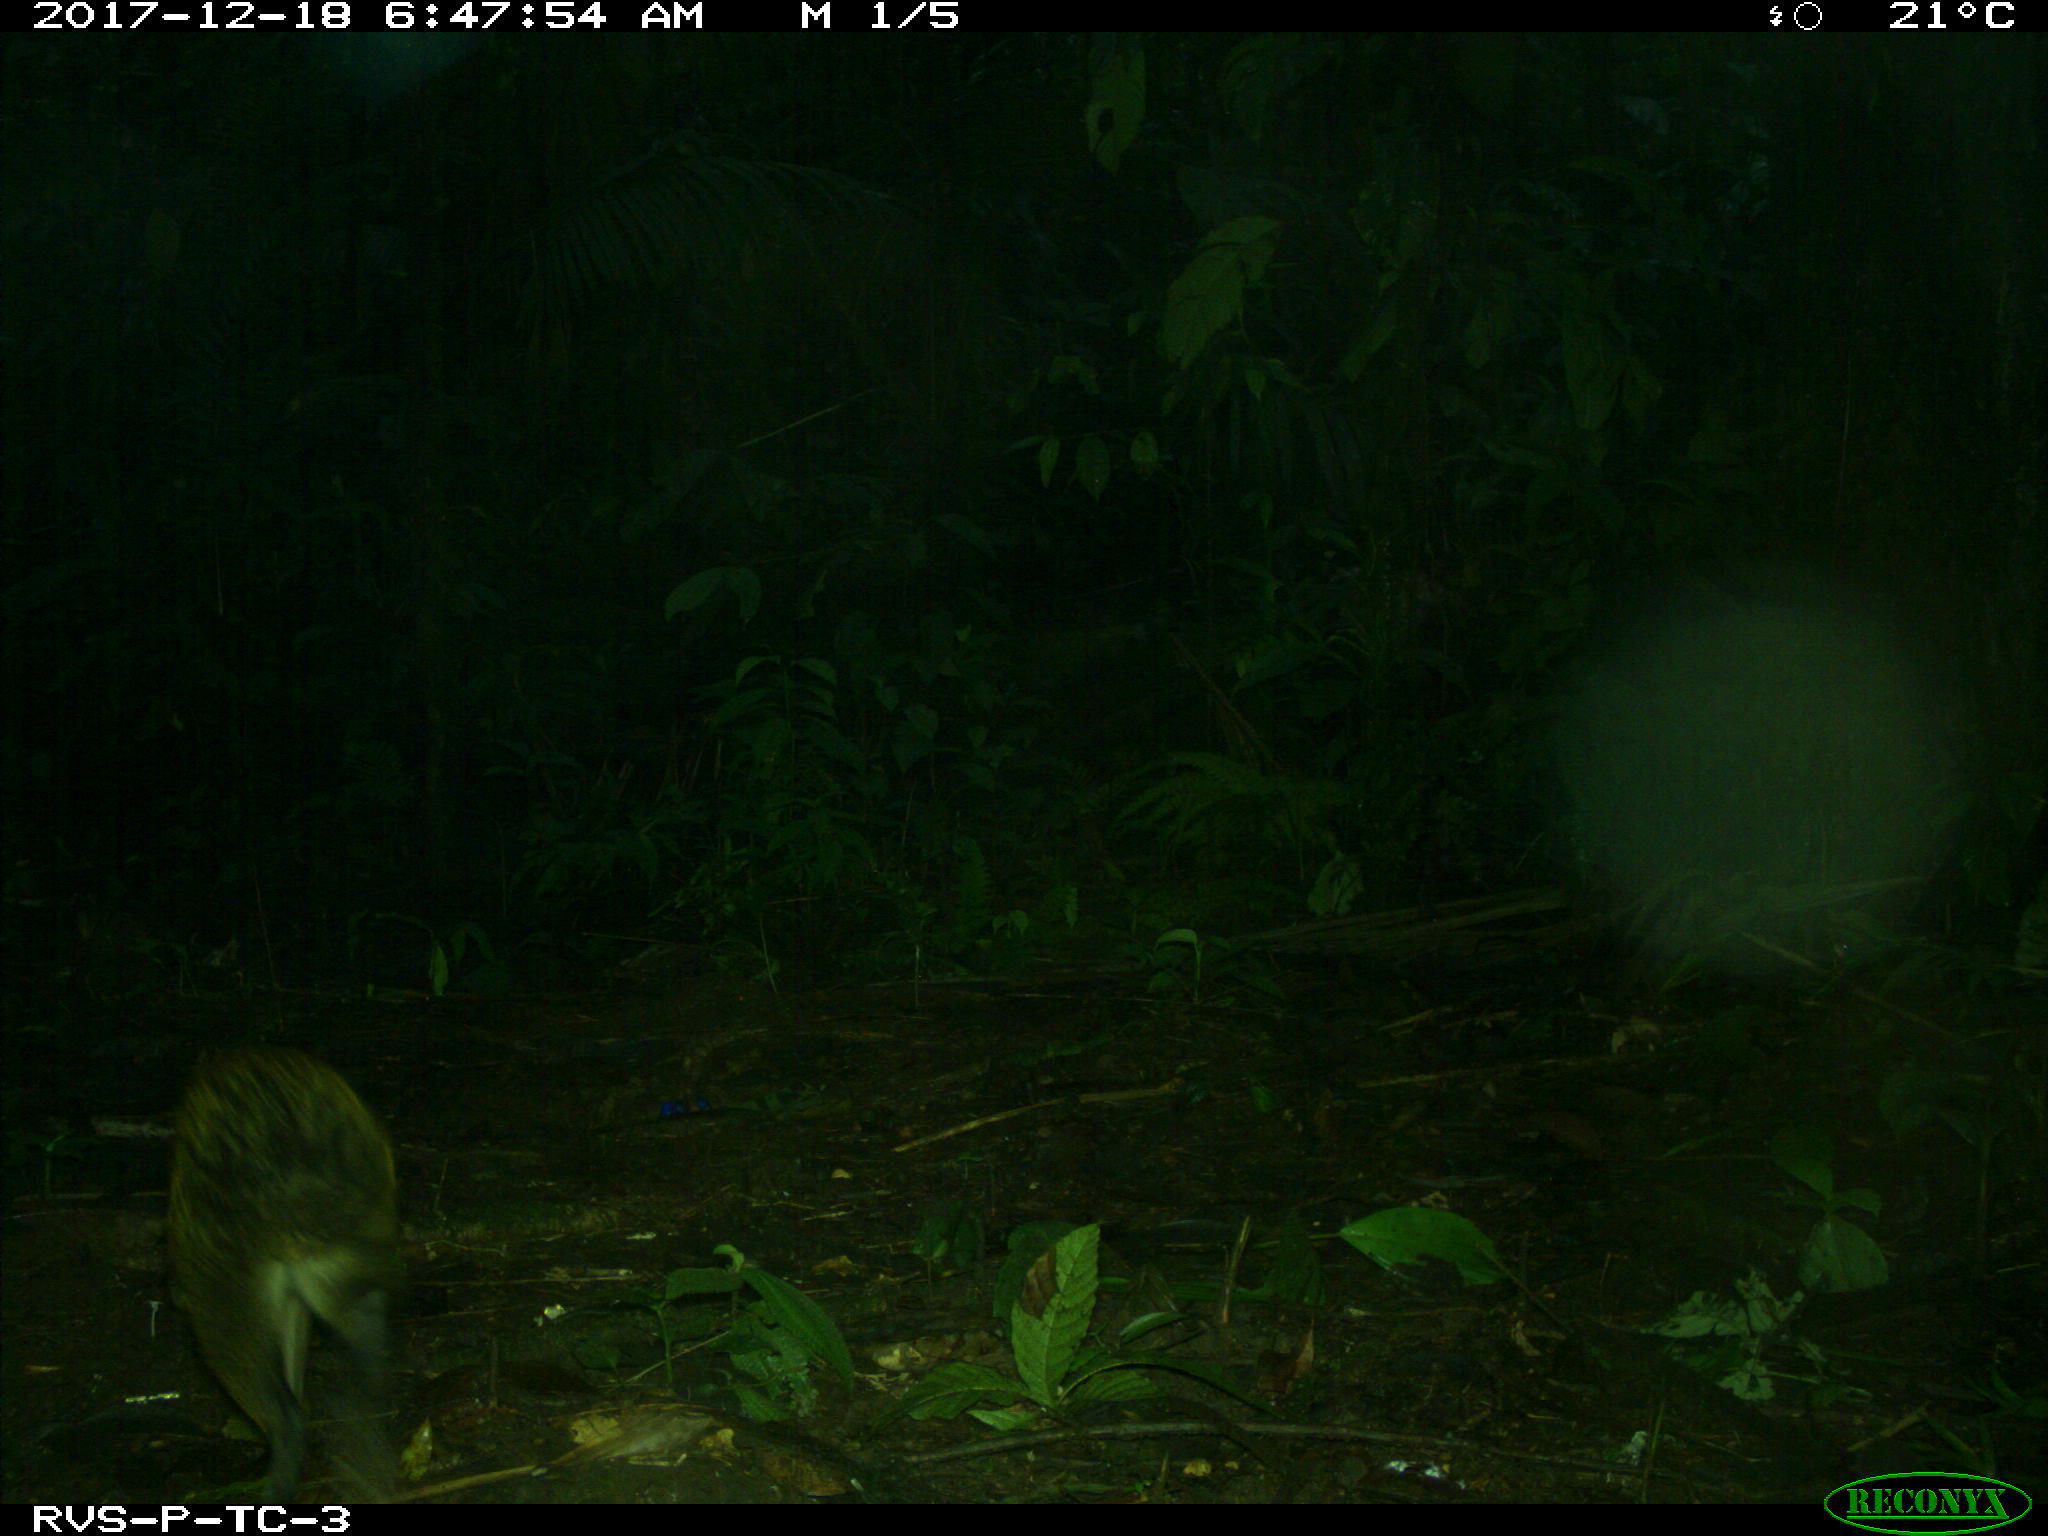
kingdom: Animalia
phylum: Chordata
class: Mammalia
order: Rodentia
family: Dasyproctidae
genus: Dasyprocta
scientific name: Dasyprocta punctata
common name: Central american agouti
